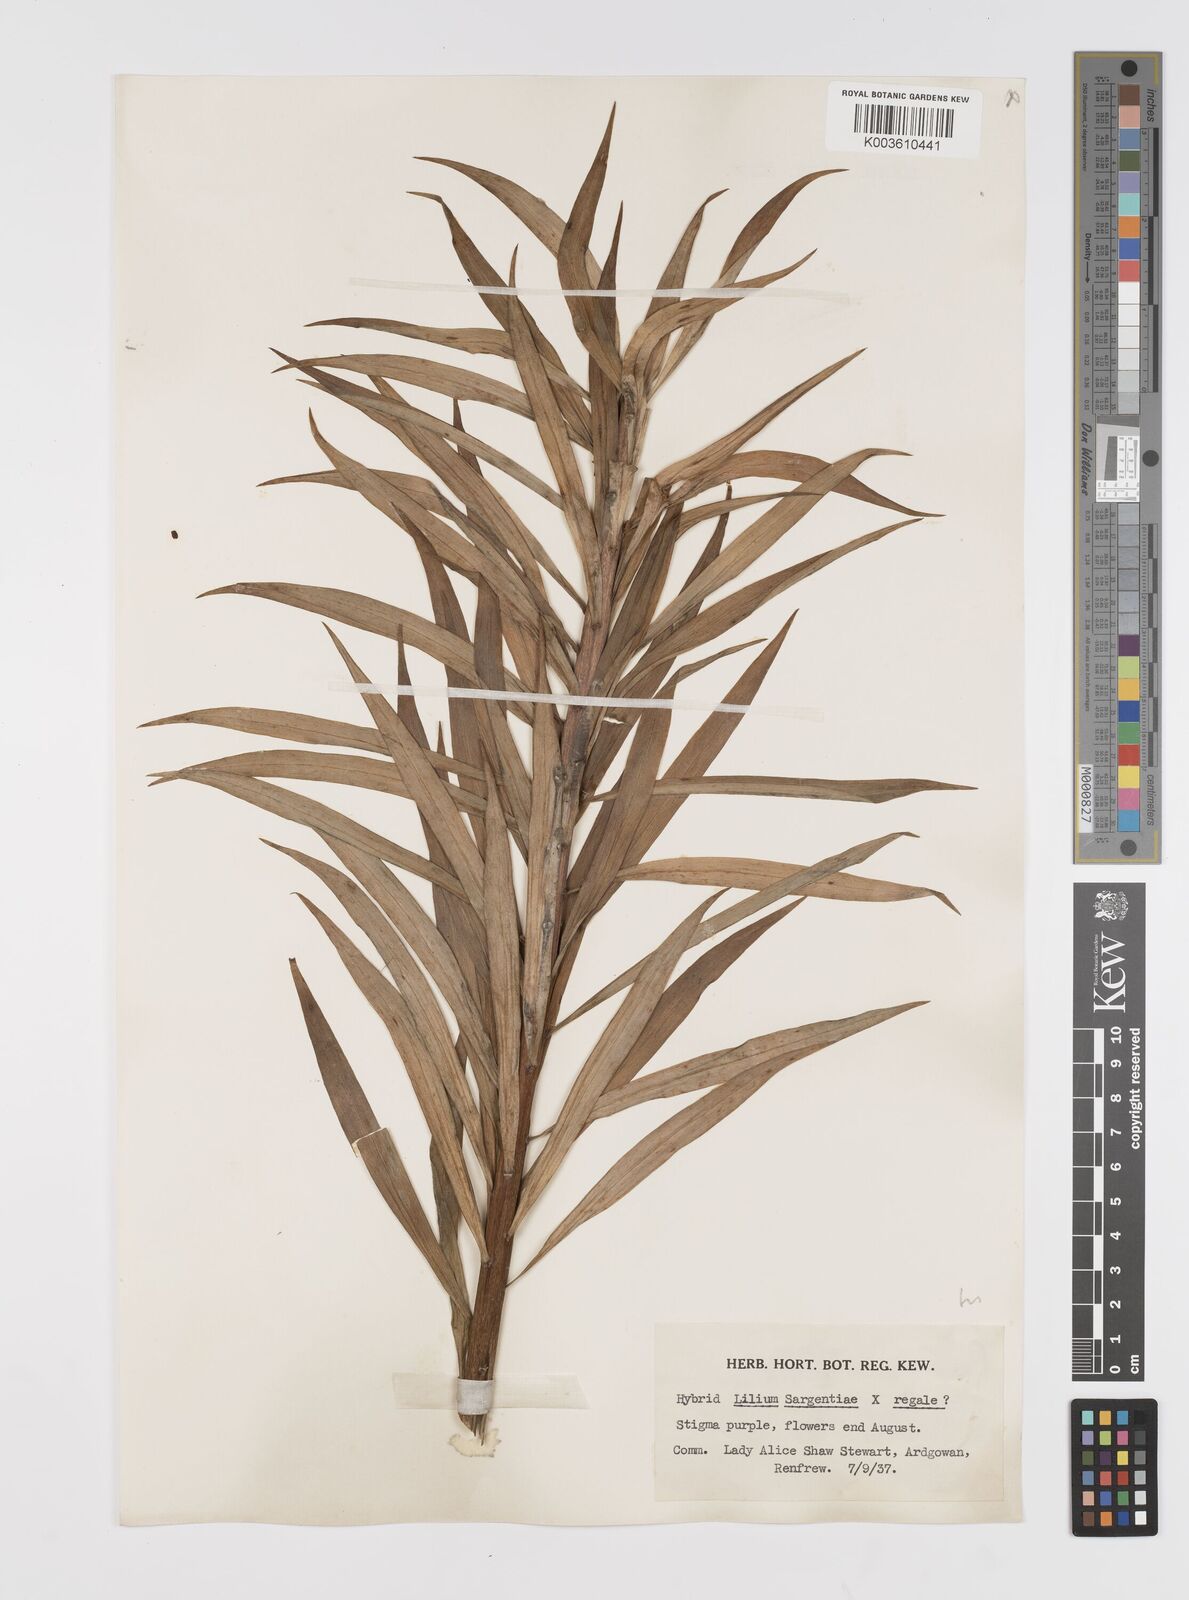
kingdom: Plantae
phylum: Tracheophyta
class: Liliopsida
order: Liliales
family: Liliaceae
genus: Lilium
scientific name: Lilium sargentiae
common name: Sargent lily
